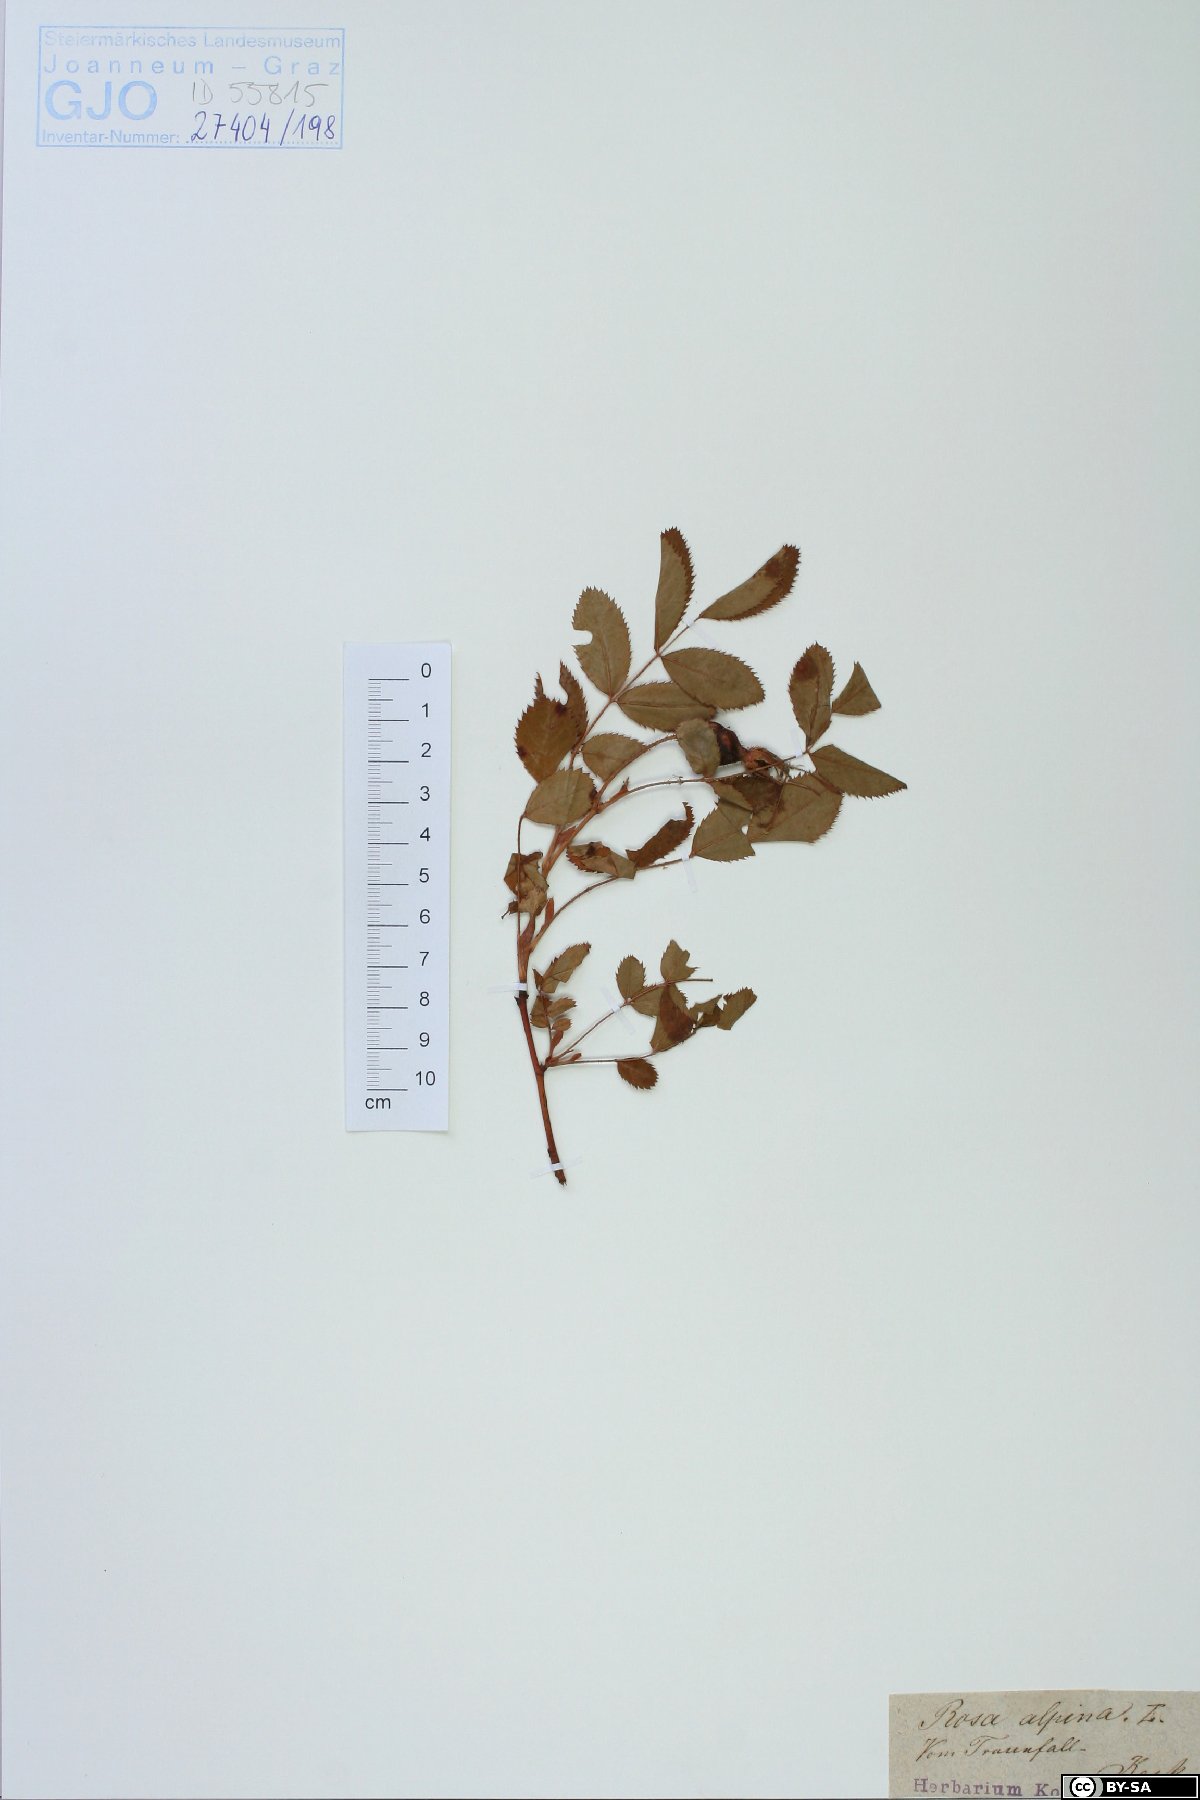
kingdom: Plantae
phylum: Tracheophyta
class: Magnoliopsida
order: Rosales
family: Rosaceae
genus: Rosa
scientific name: Rosa pendulina
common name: Alpine rose
